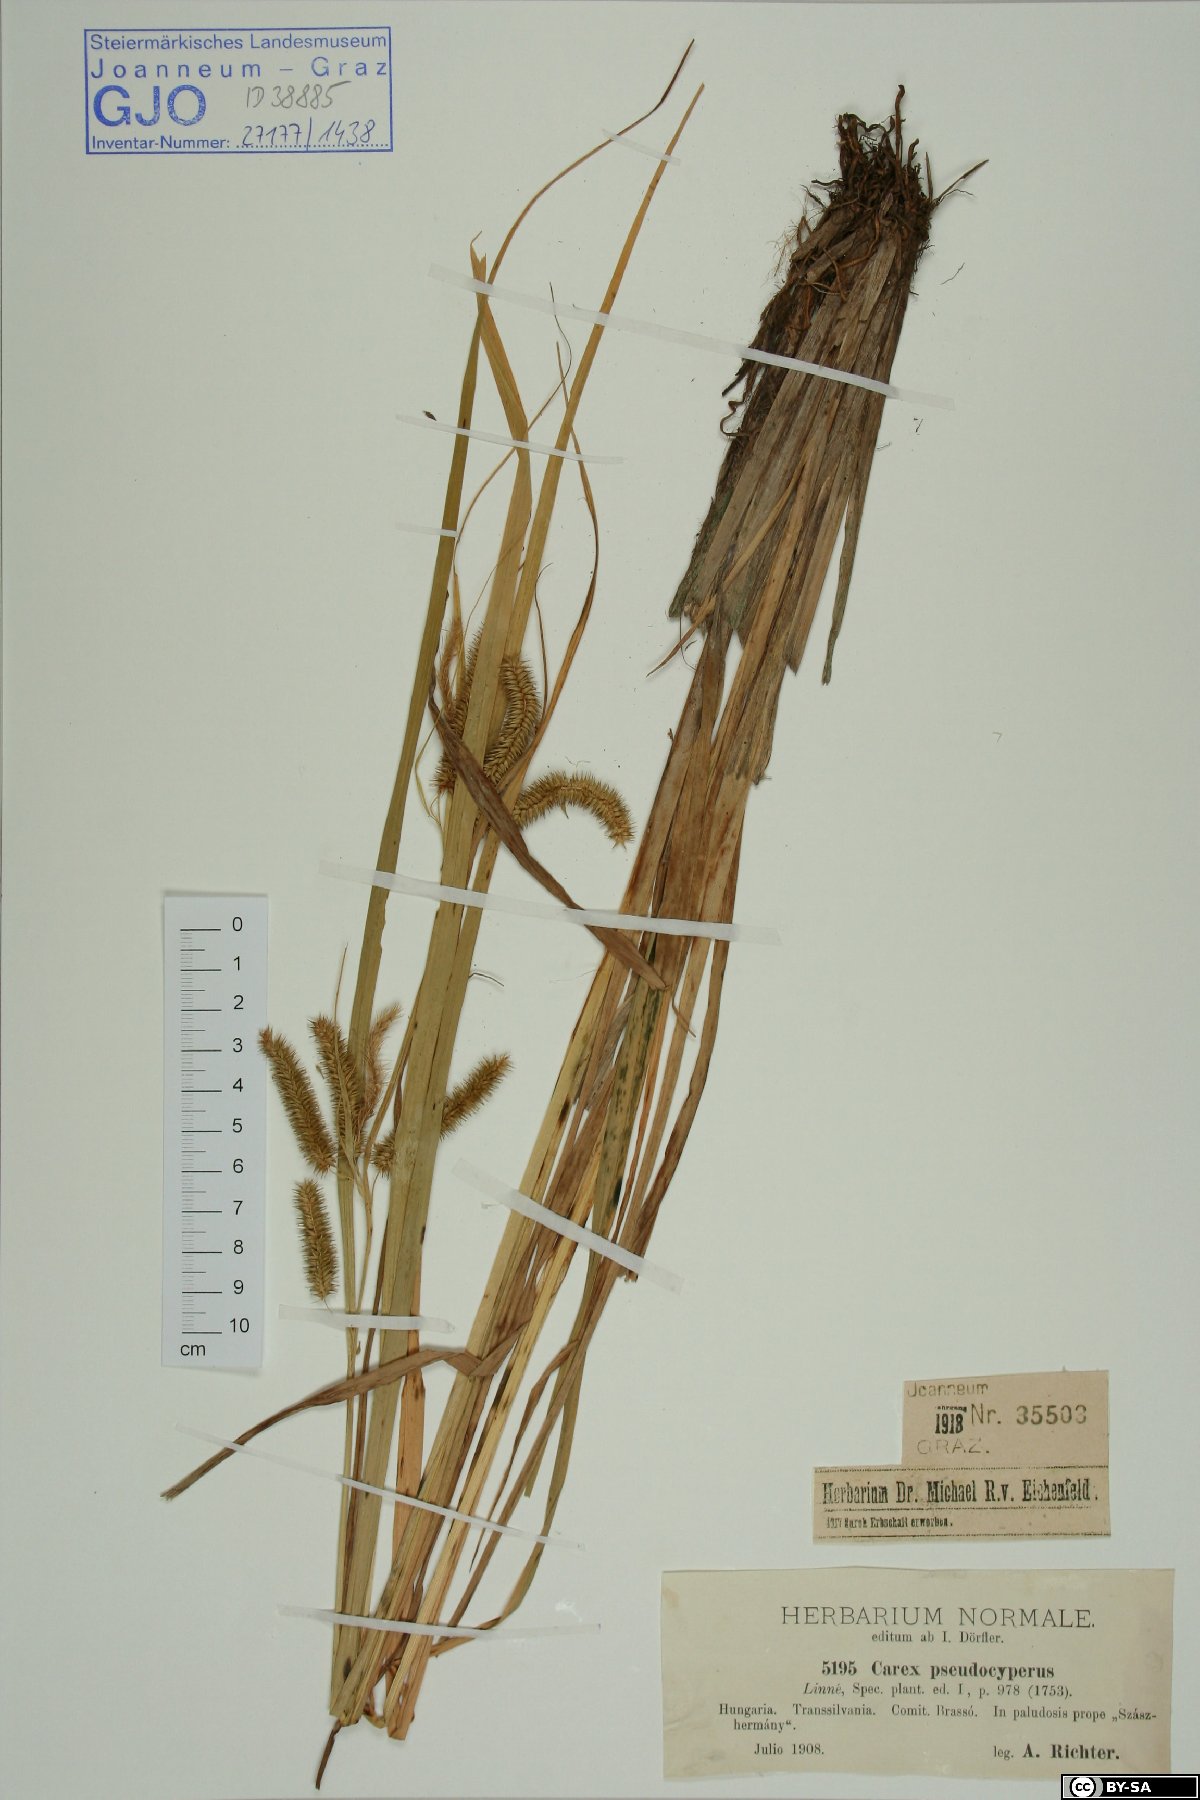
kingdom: Plantae
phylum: Tracheophyta
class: Liliopsida
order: Poales
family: Cyperaceae
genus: Carex
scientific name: Carex pseudocyperus
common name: Cyperus sedge
